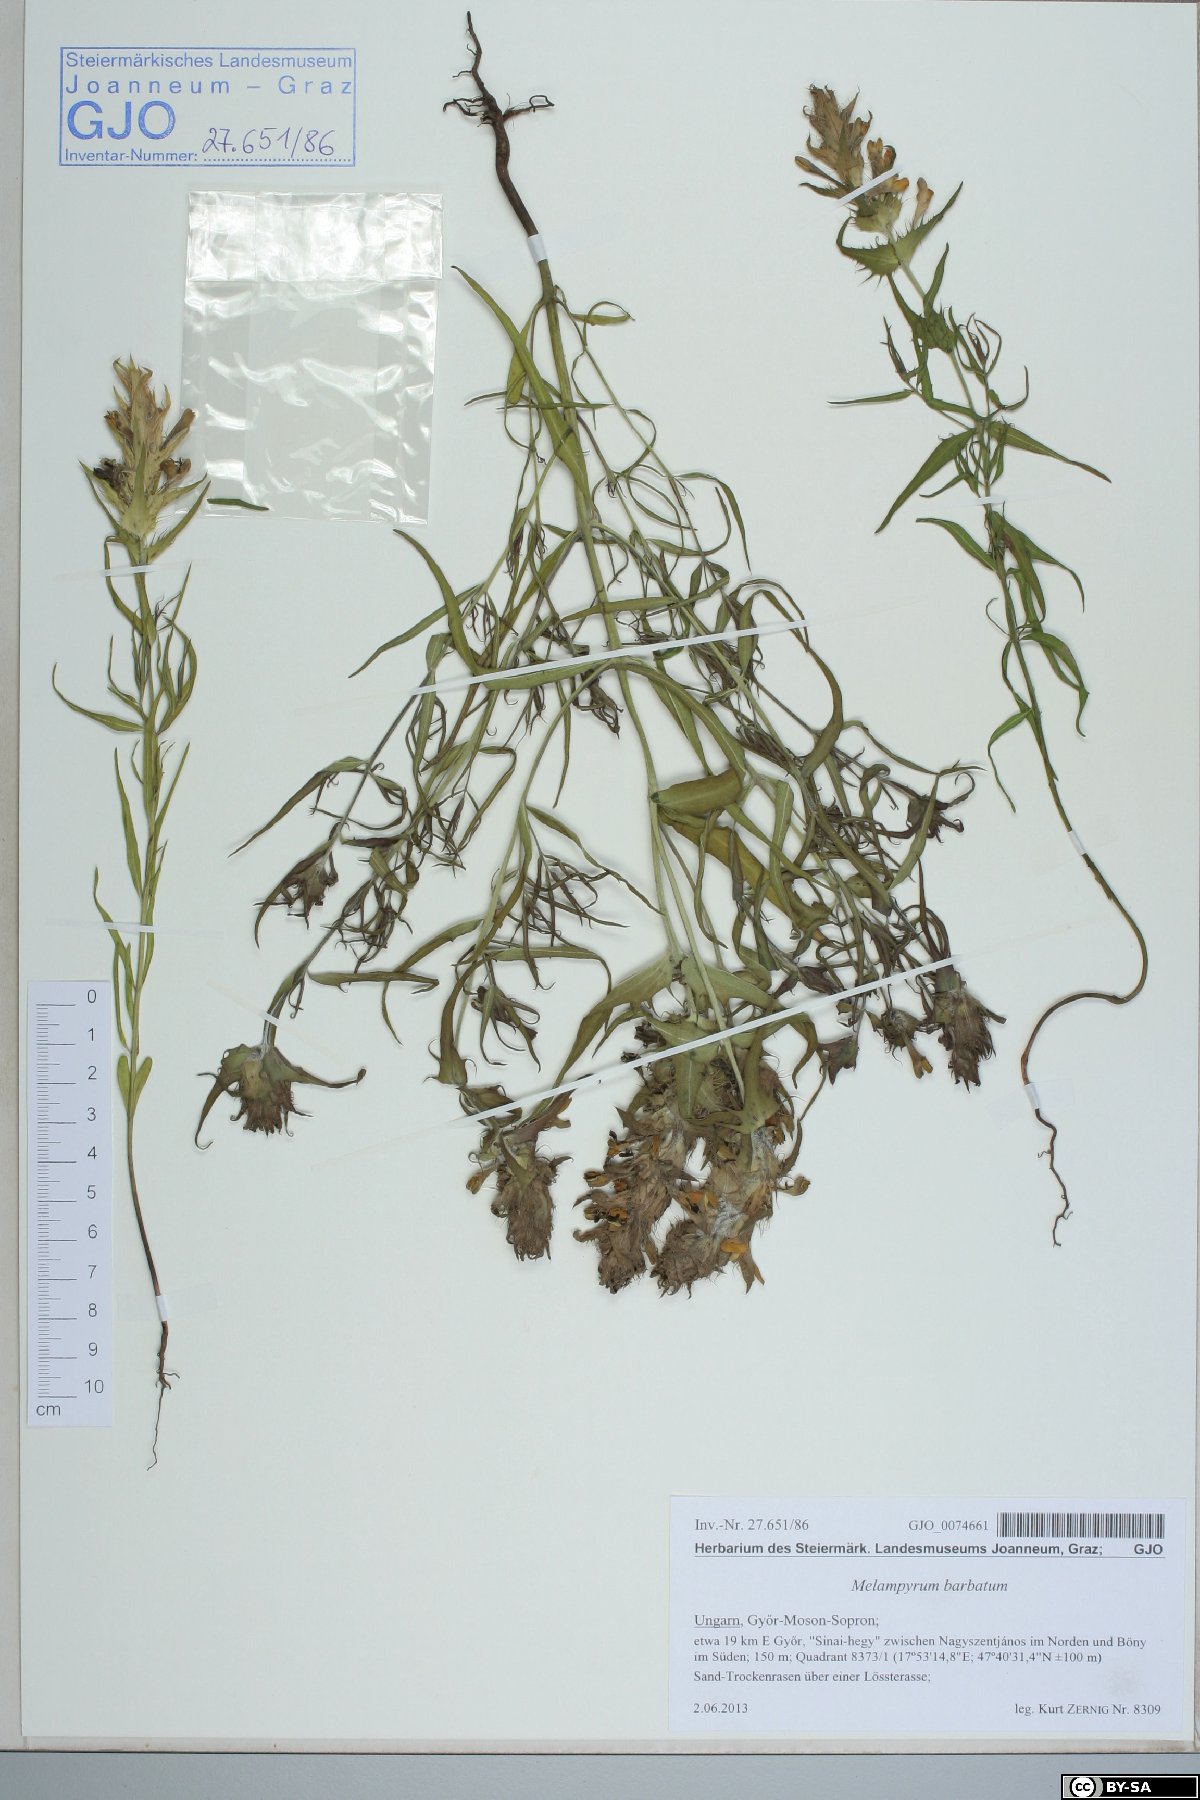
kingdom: Plantae
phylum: Tracheophyta
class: Magnoliopsida
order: Lamiales
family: Orobanchaceae
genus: Melampyrum
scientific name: Melampyrum barbatum
